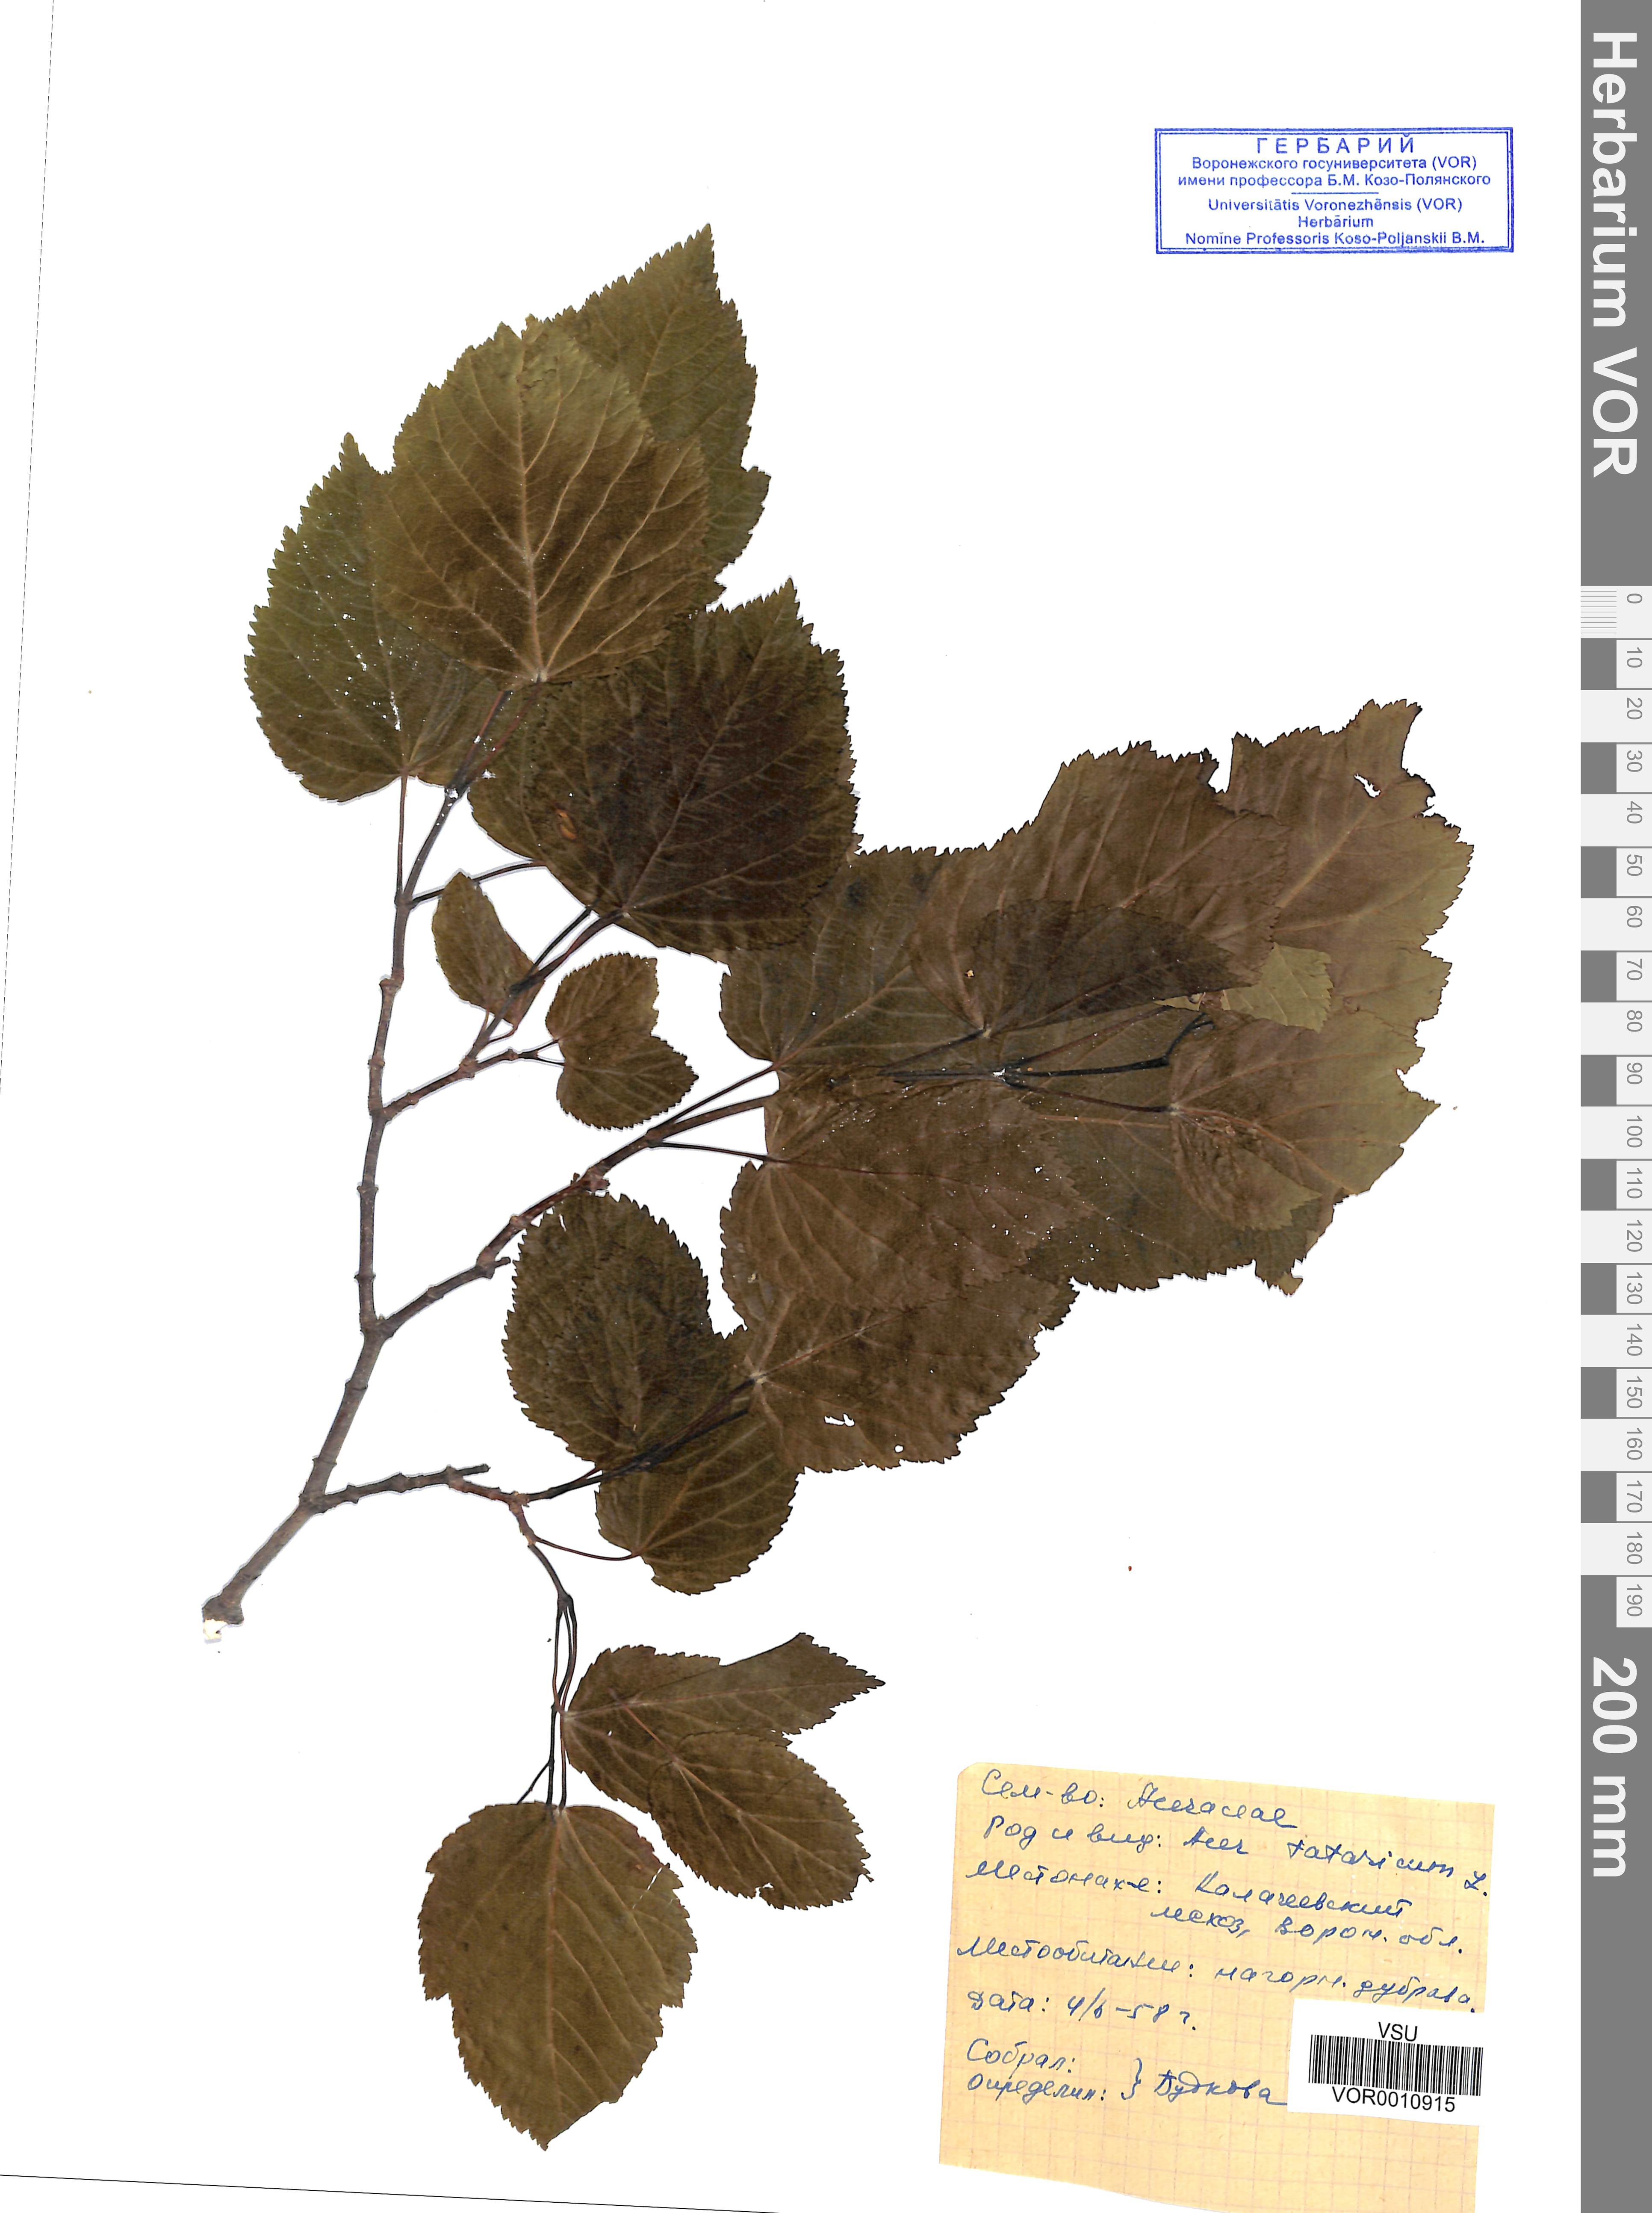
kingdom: Plantae
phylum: Tracheophyta
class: Magnoliopsida
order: Sapindales
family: Sapindaceae
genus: Acer
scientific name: Acer tataricum
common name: Tartar maple
